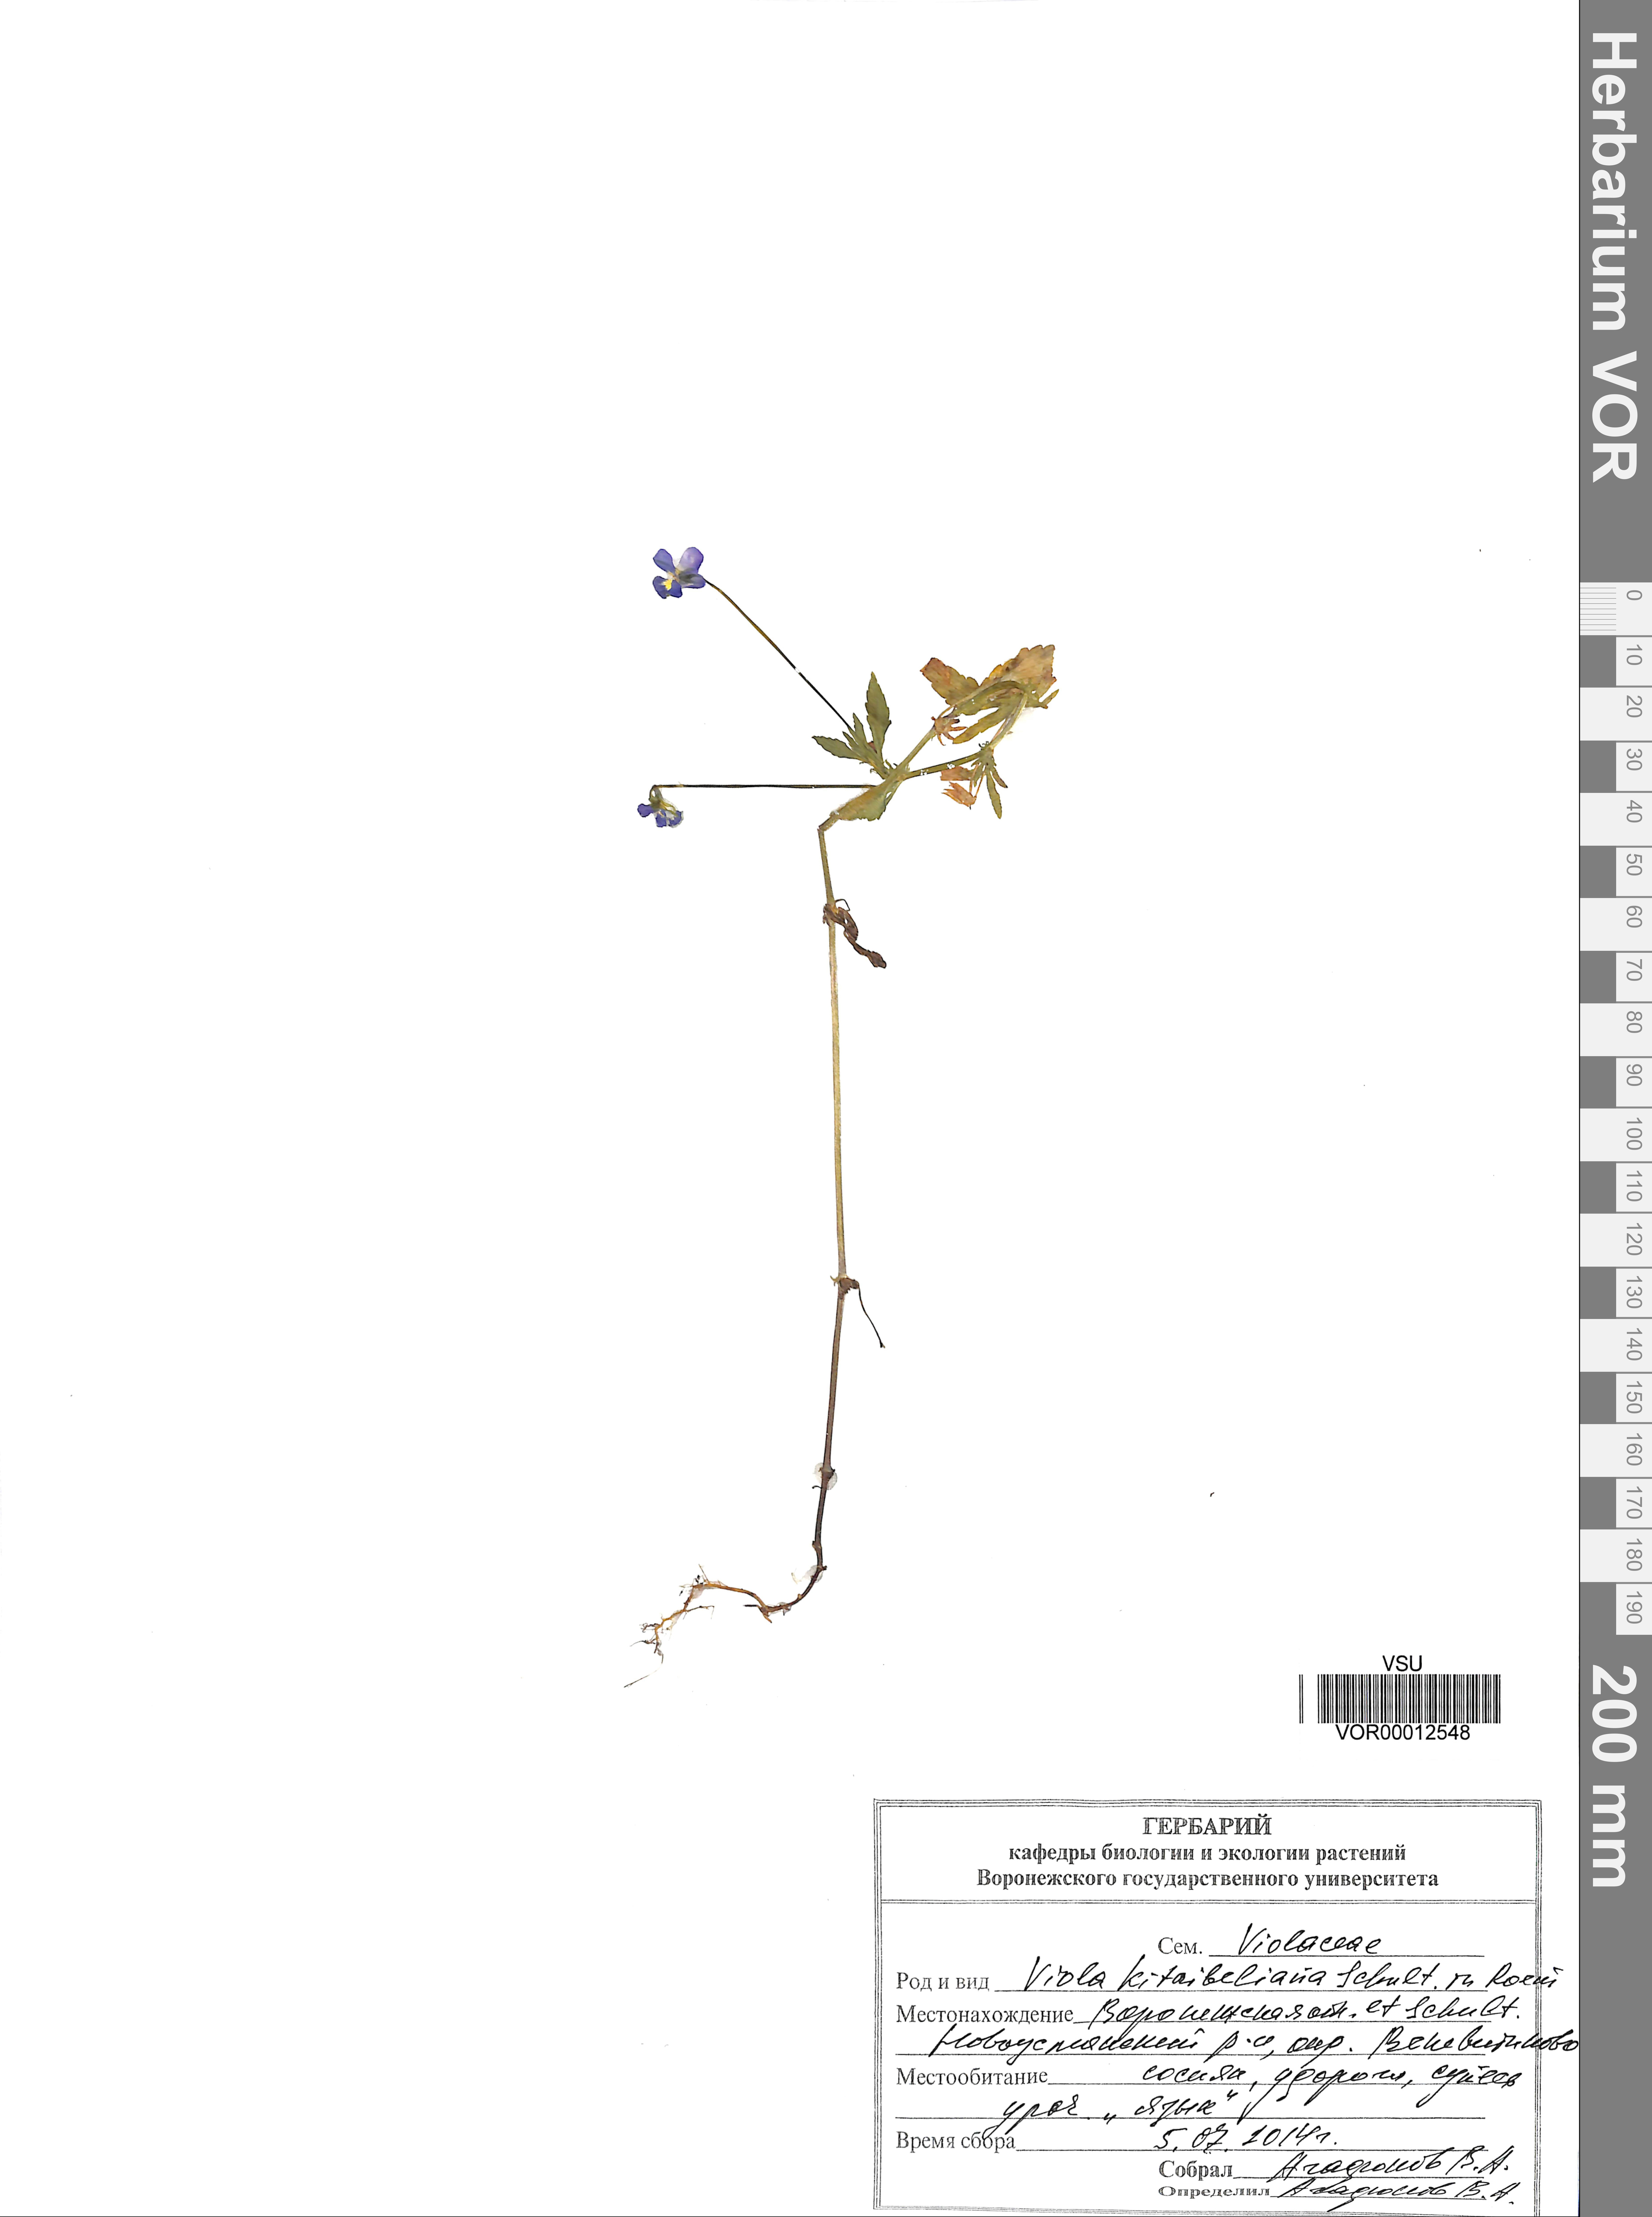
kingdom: Plantae
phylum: Tracheophyta
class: Magnoliopsida
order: Malpighiales
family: Violaceae
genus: Viola
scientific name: Viola kitaibeliana
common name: Dwarf pansy
